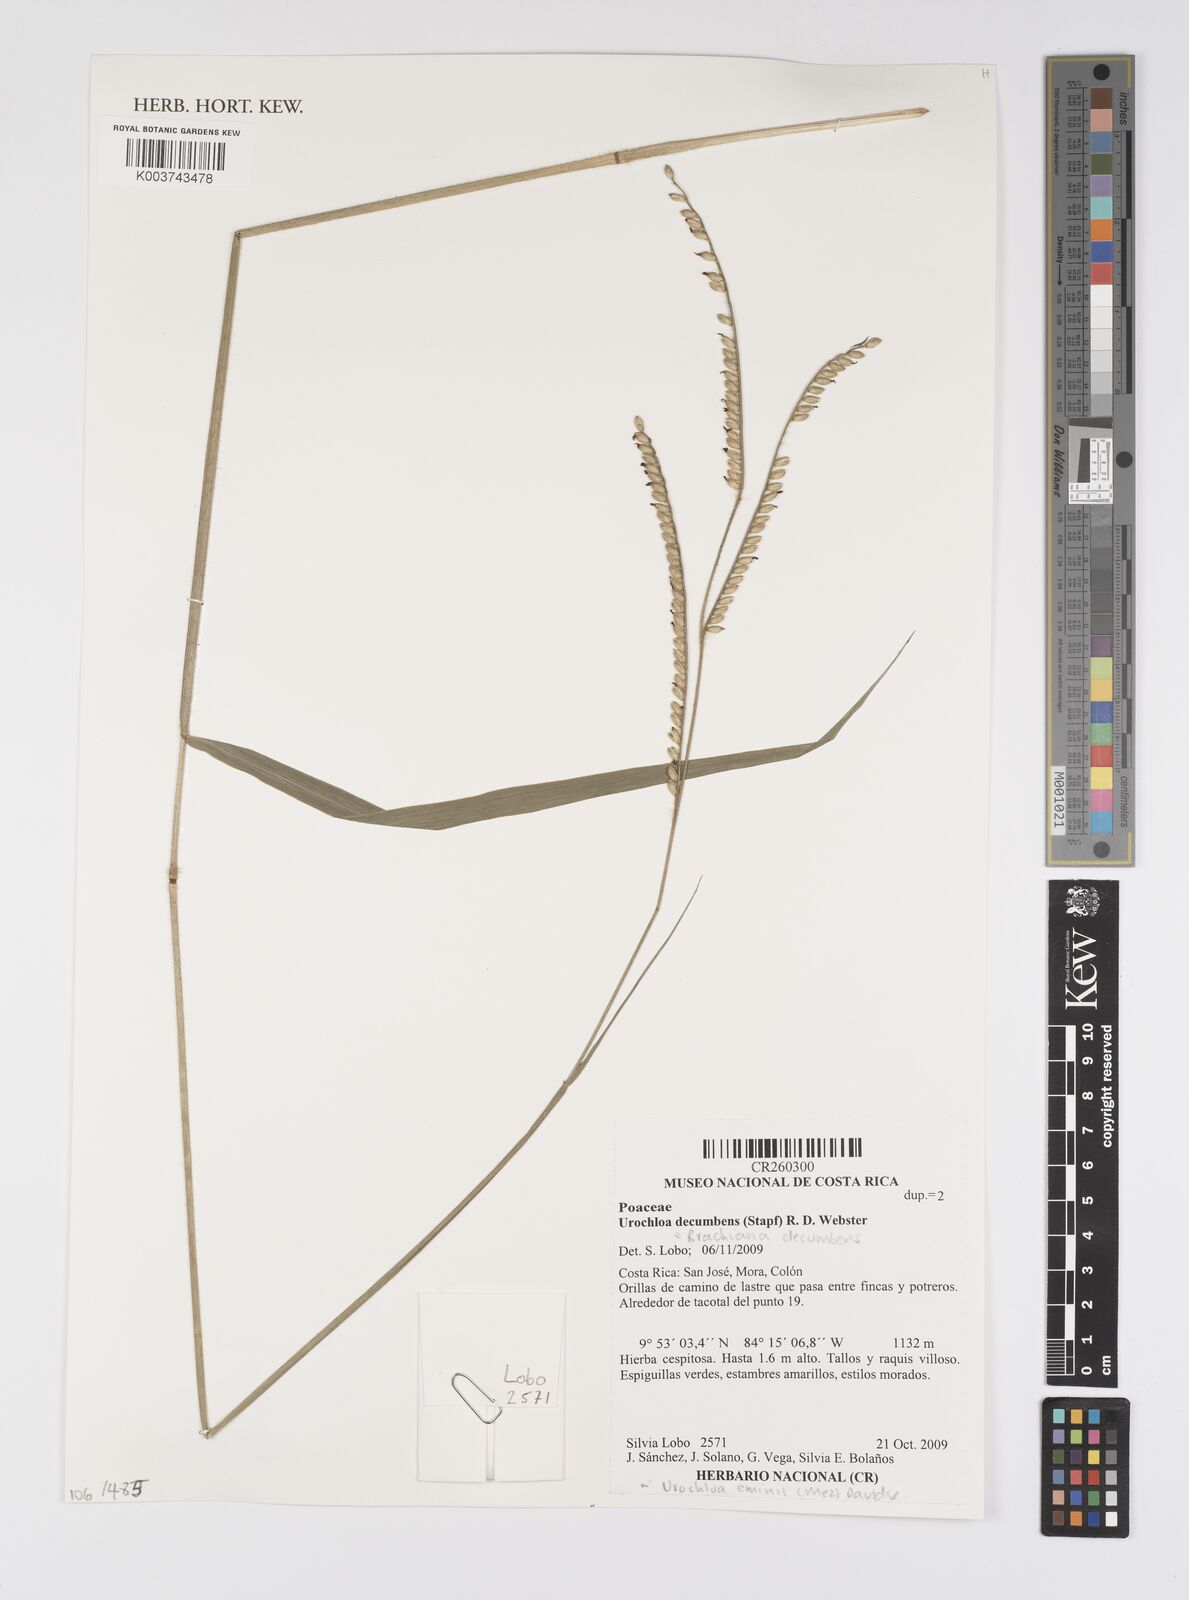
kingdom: Plantae
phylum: Tracheophyta
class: Liliopsida
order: Poales
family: Poaceae
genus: Urochloa
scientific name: Urochloa eminii
